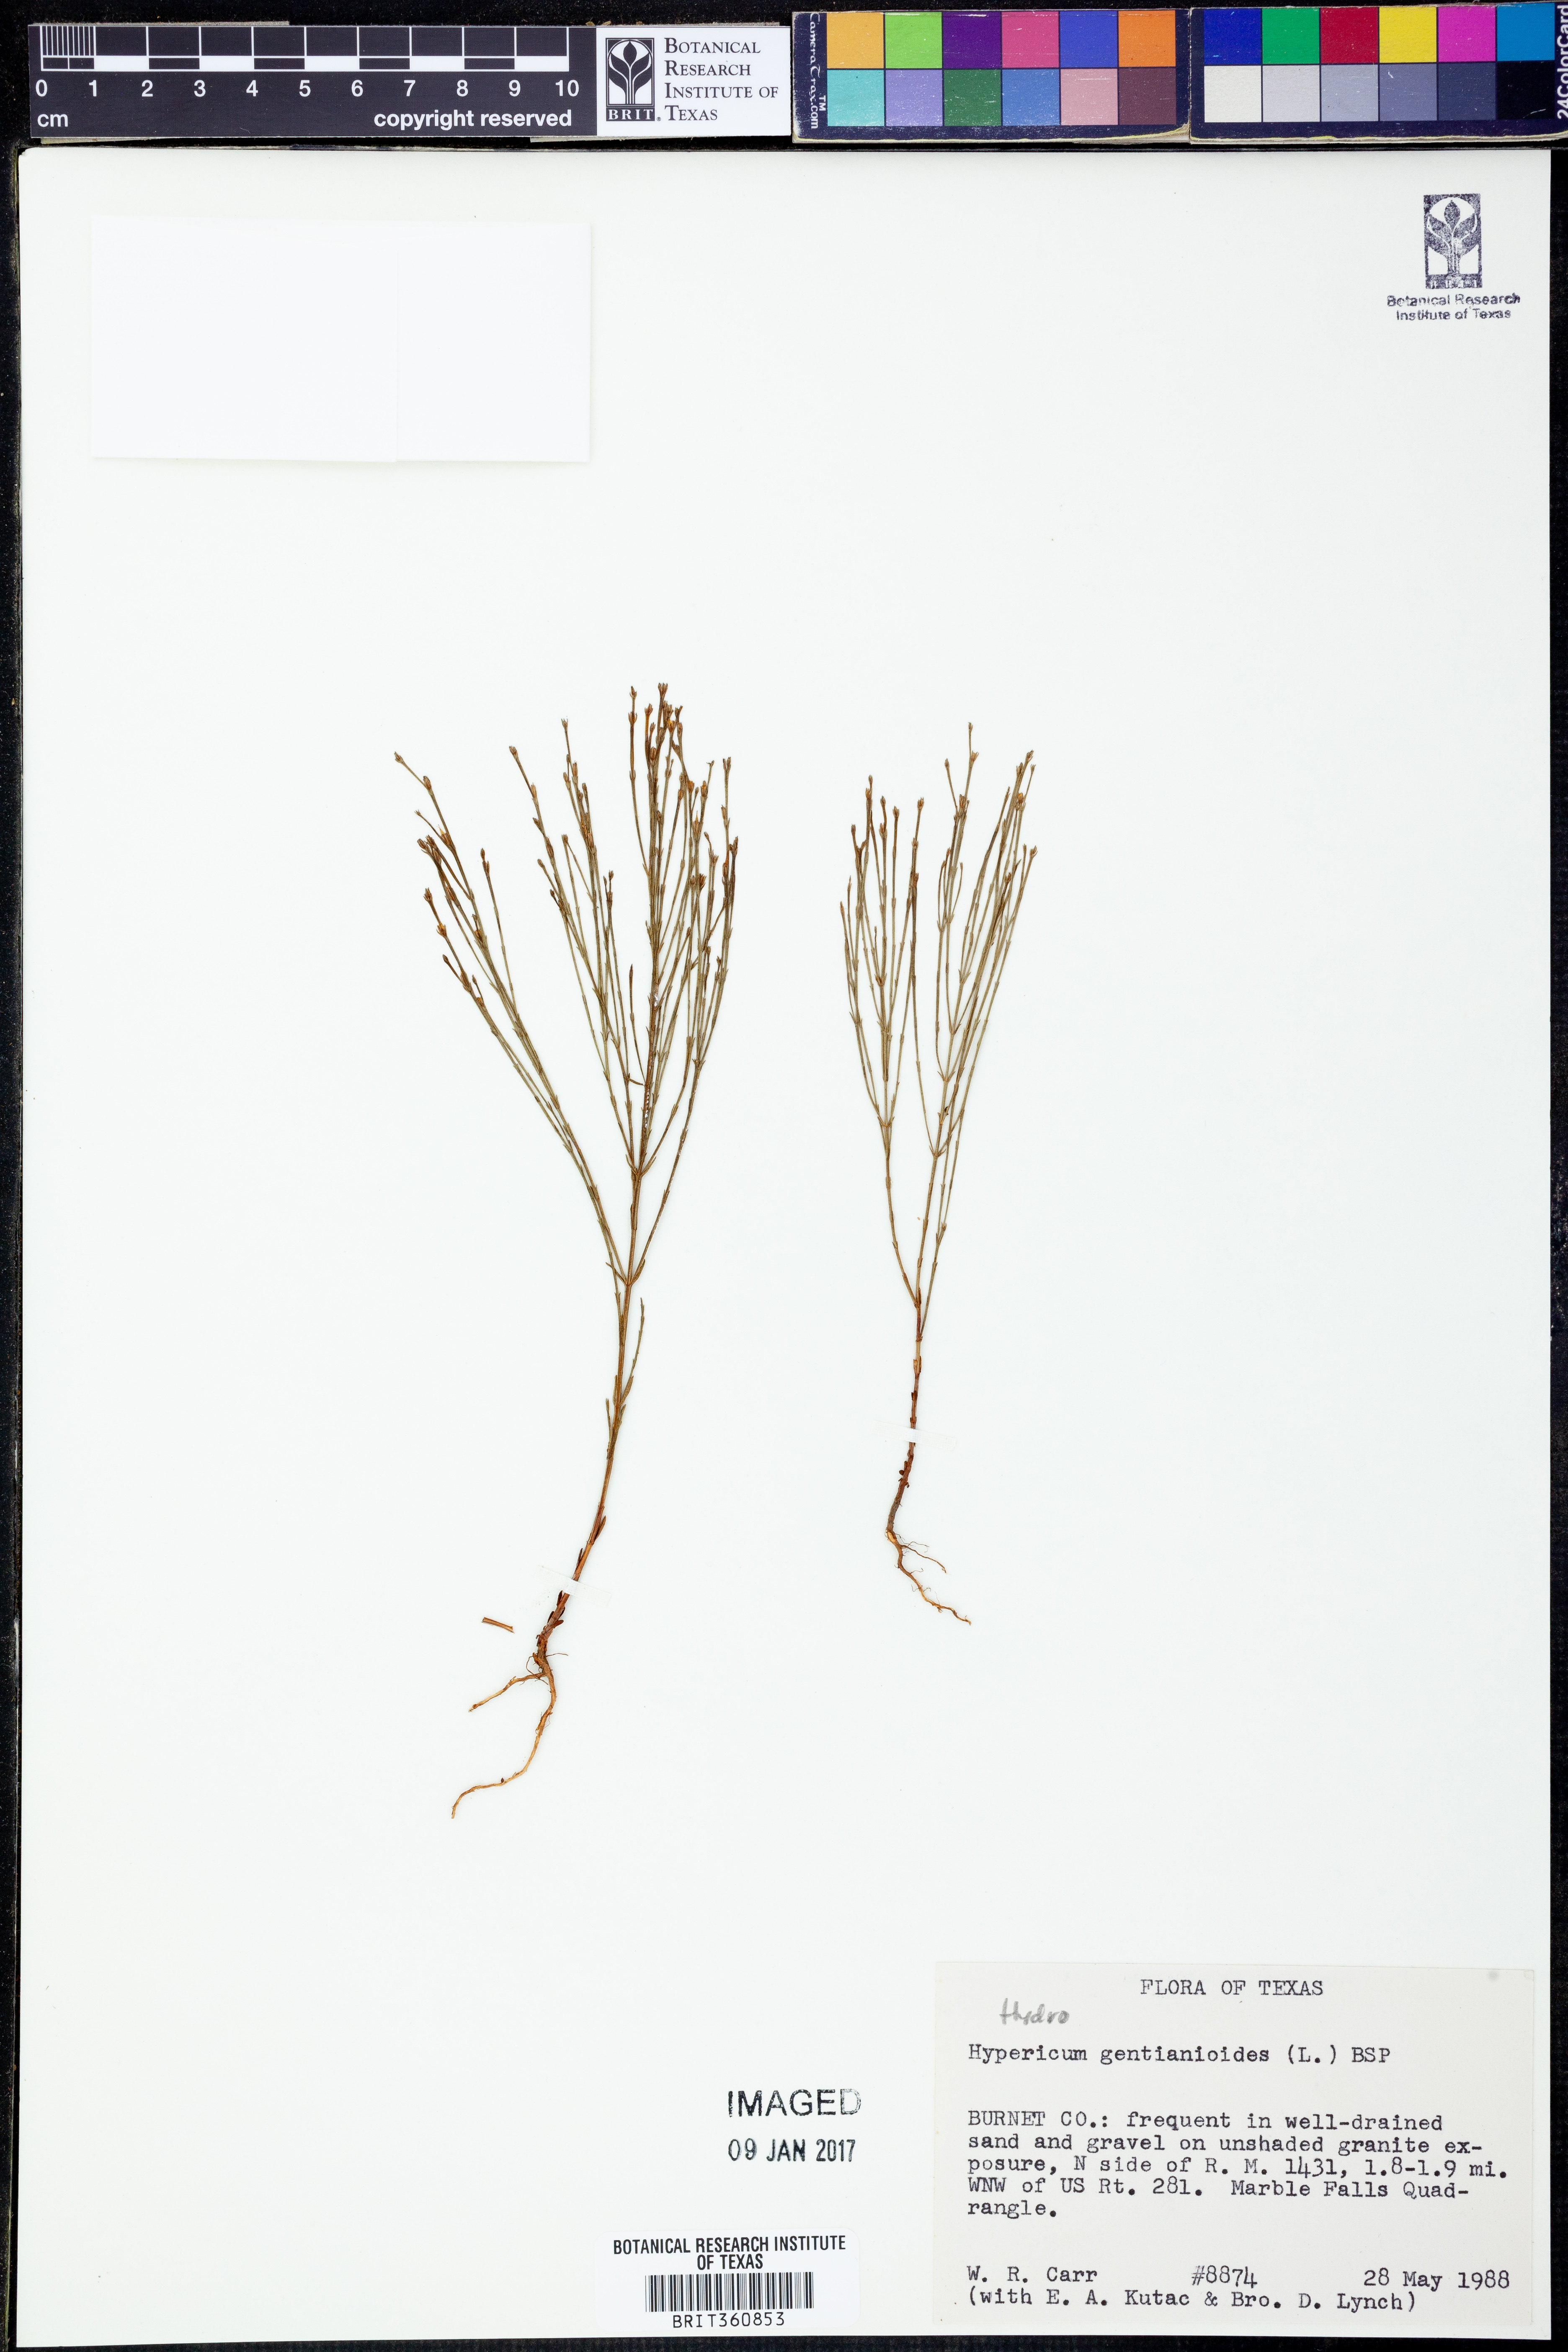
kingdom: Plantae
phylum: Tracheophyta
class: Magnoliopsida
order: Malpighiales
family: Hypericaceae
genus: Hypericum
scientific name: Hypericum gentianoides
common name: Gentian-leaved st. john's-wort
